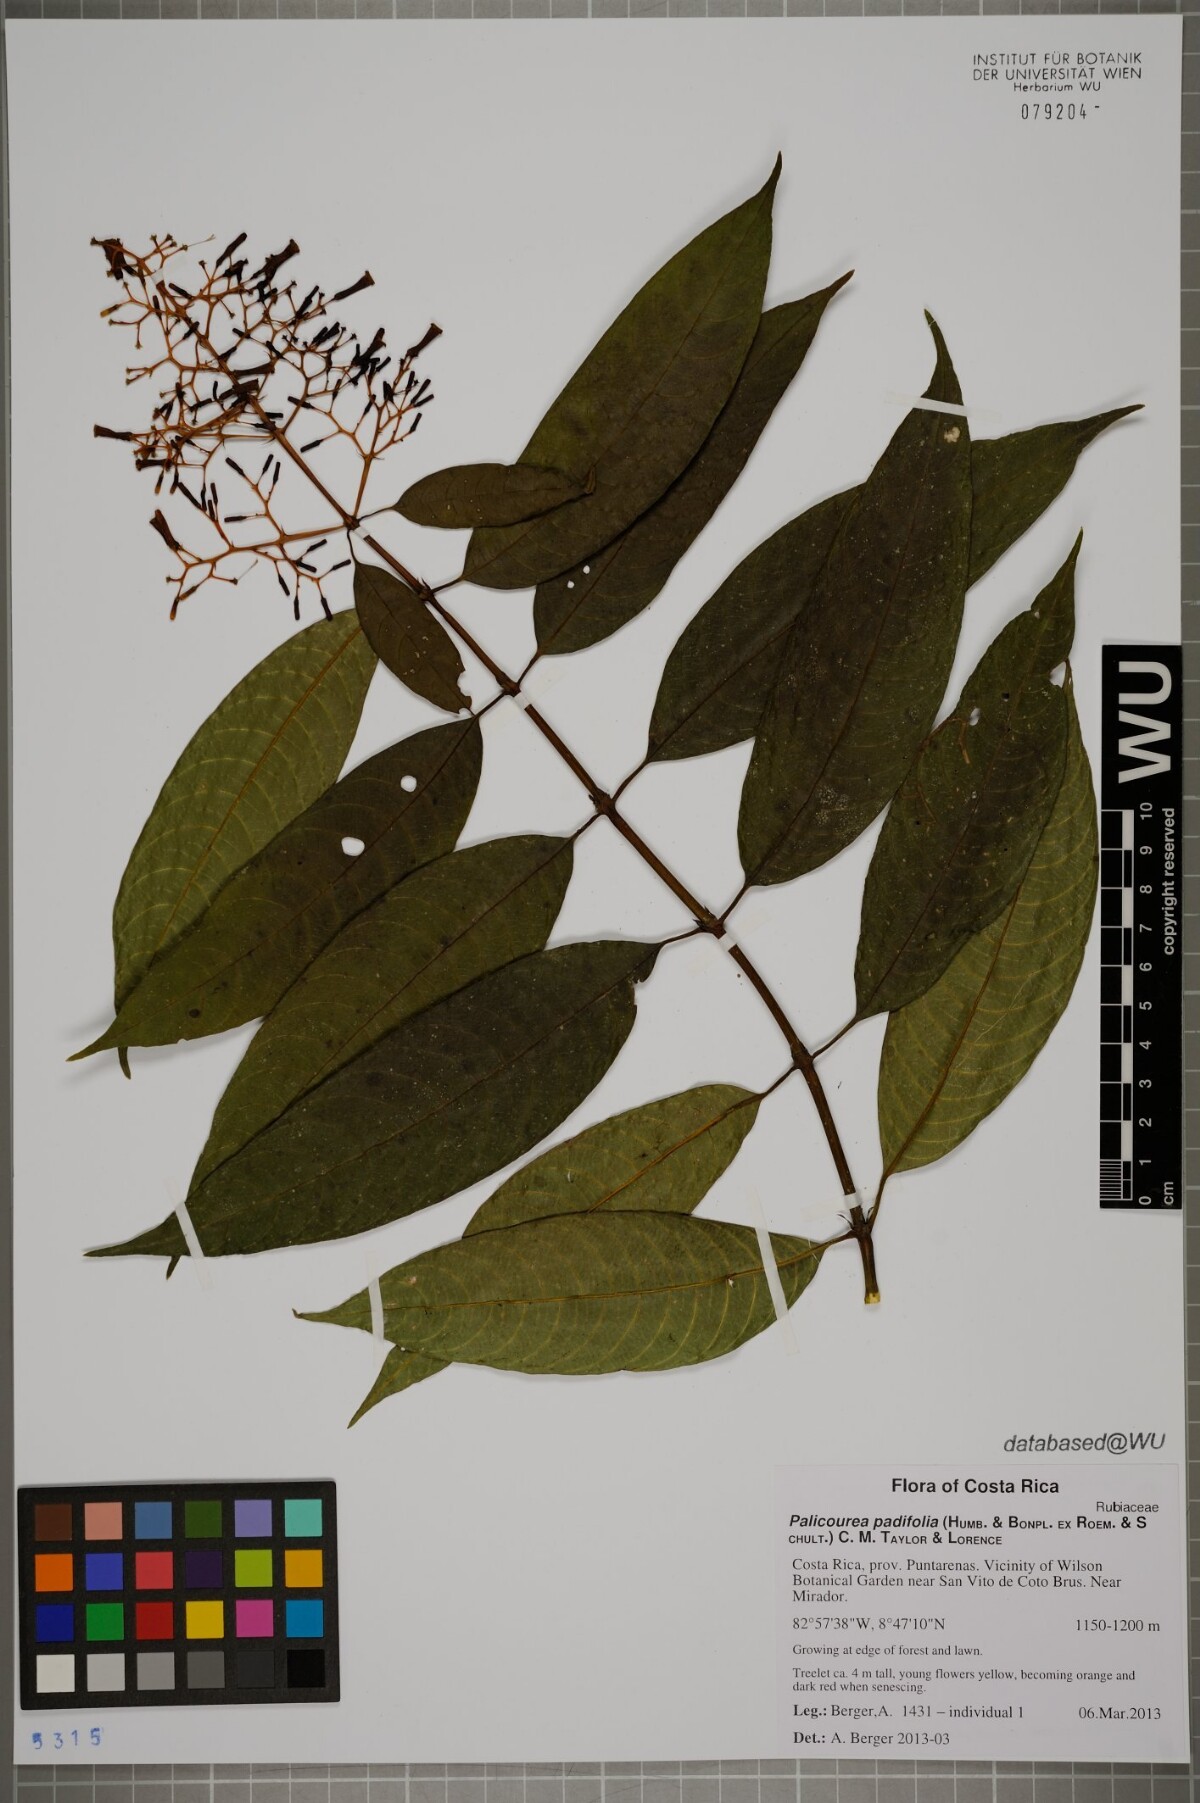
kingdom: Plantae
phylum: Tracheophyta
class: Magnoliopsida
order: Gentianales
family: Rubiaceae
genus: Palicourea
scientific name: Palicourea padifolia
